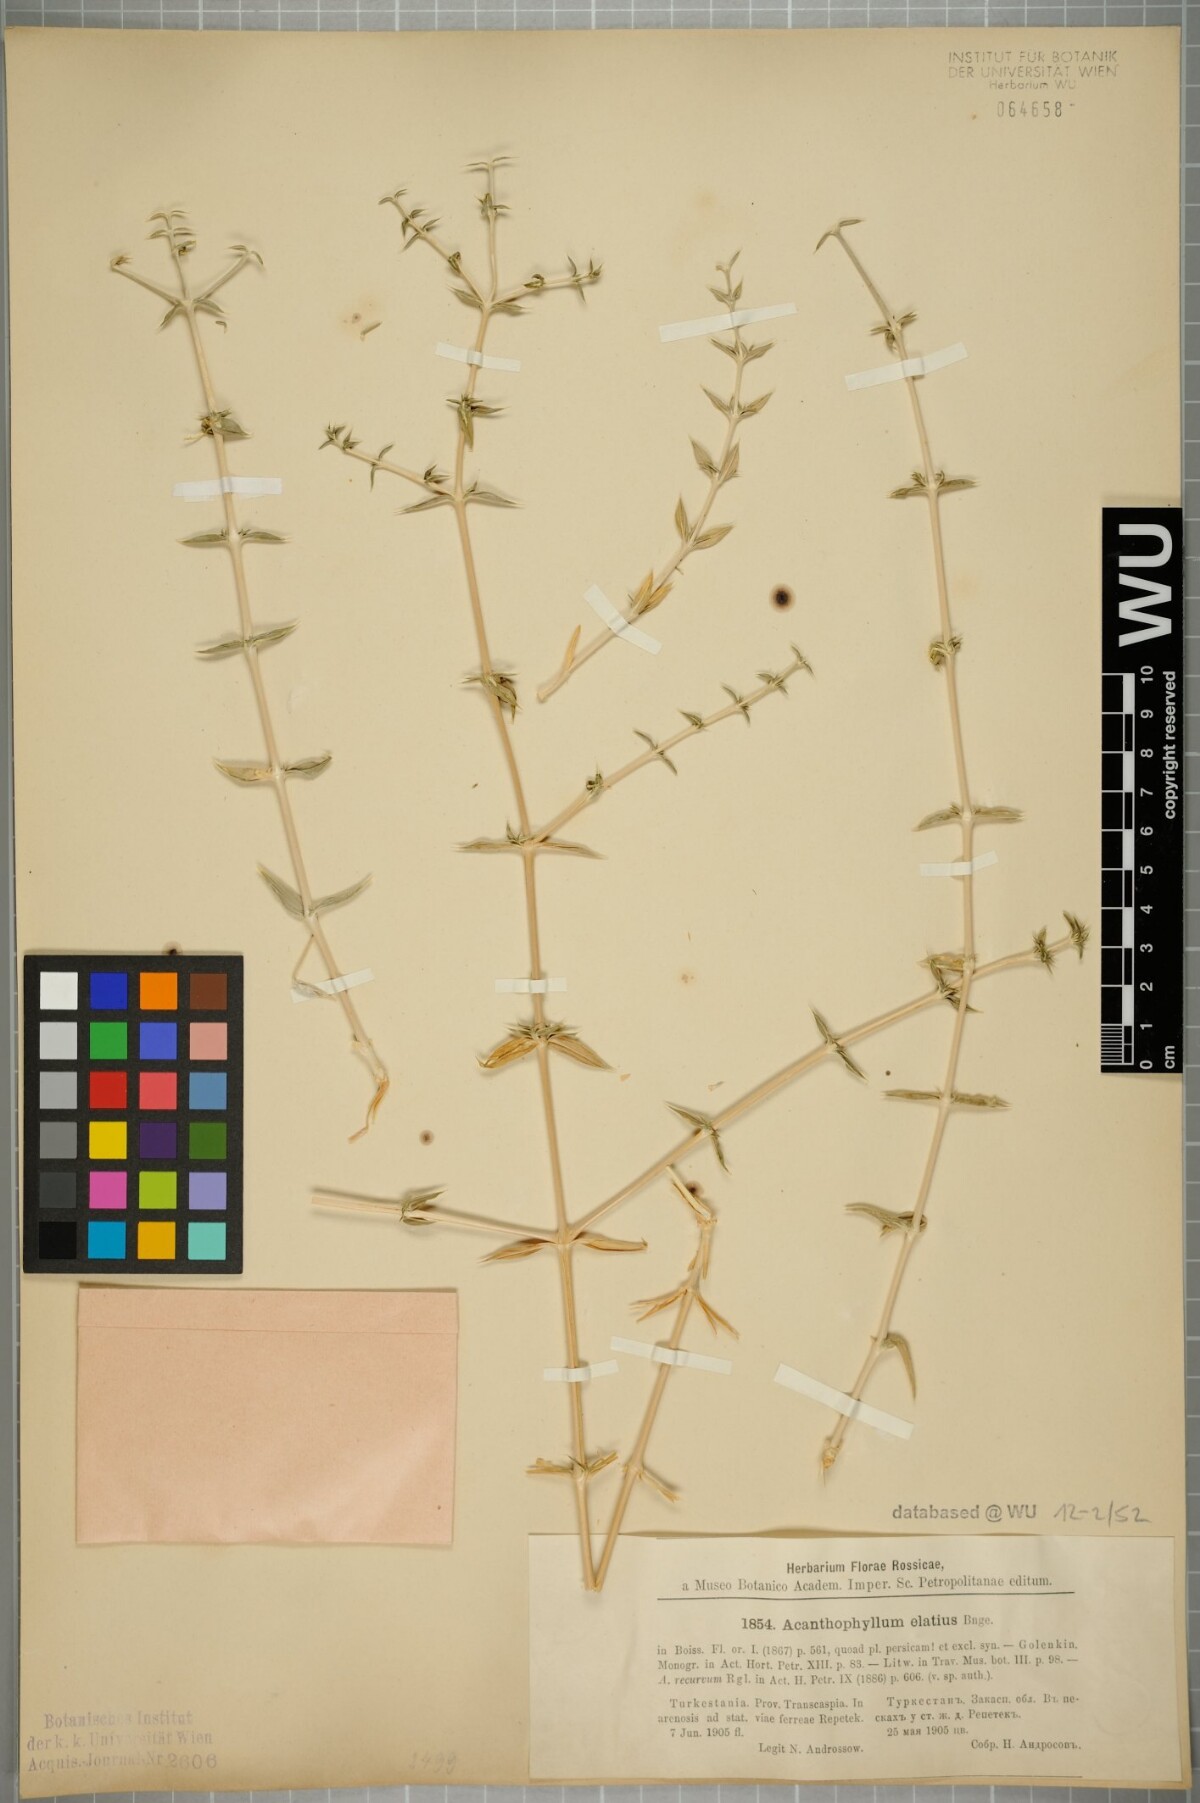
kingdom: Plantae
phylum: Tracheophyta
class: Magnoliopsida
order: Caryophyllales
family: Caryophyllaceae
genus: Acanthophyllum
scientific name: Acanthophyllum elatius
